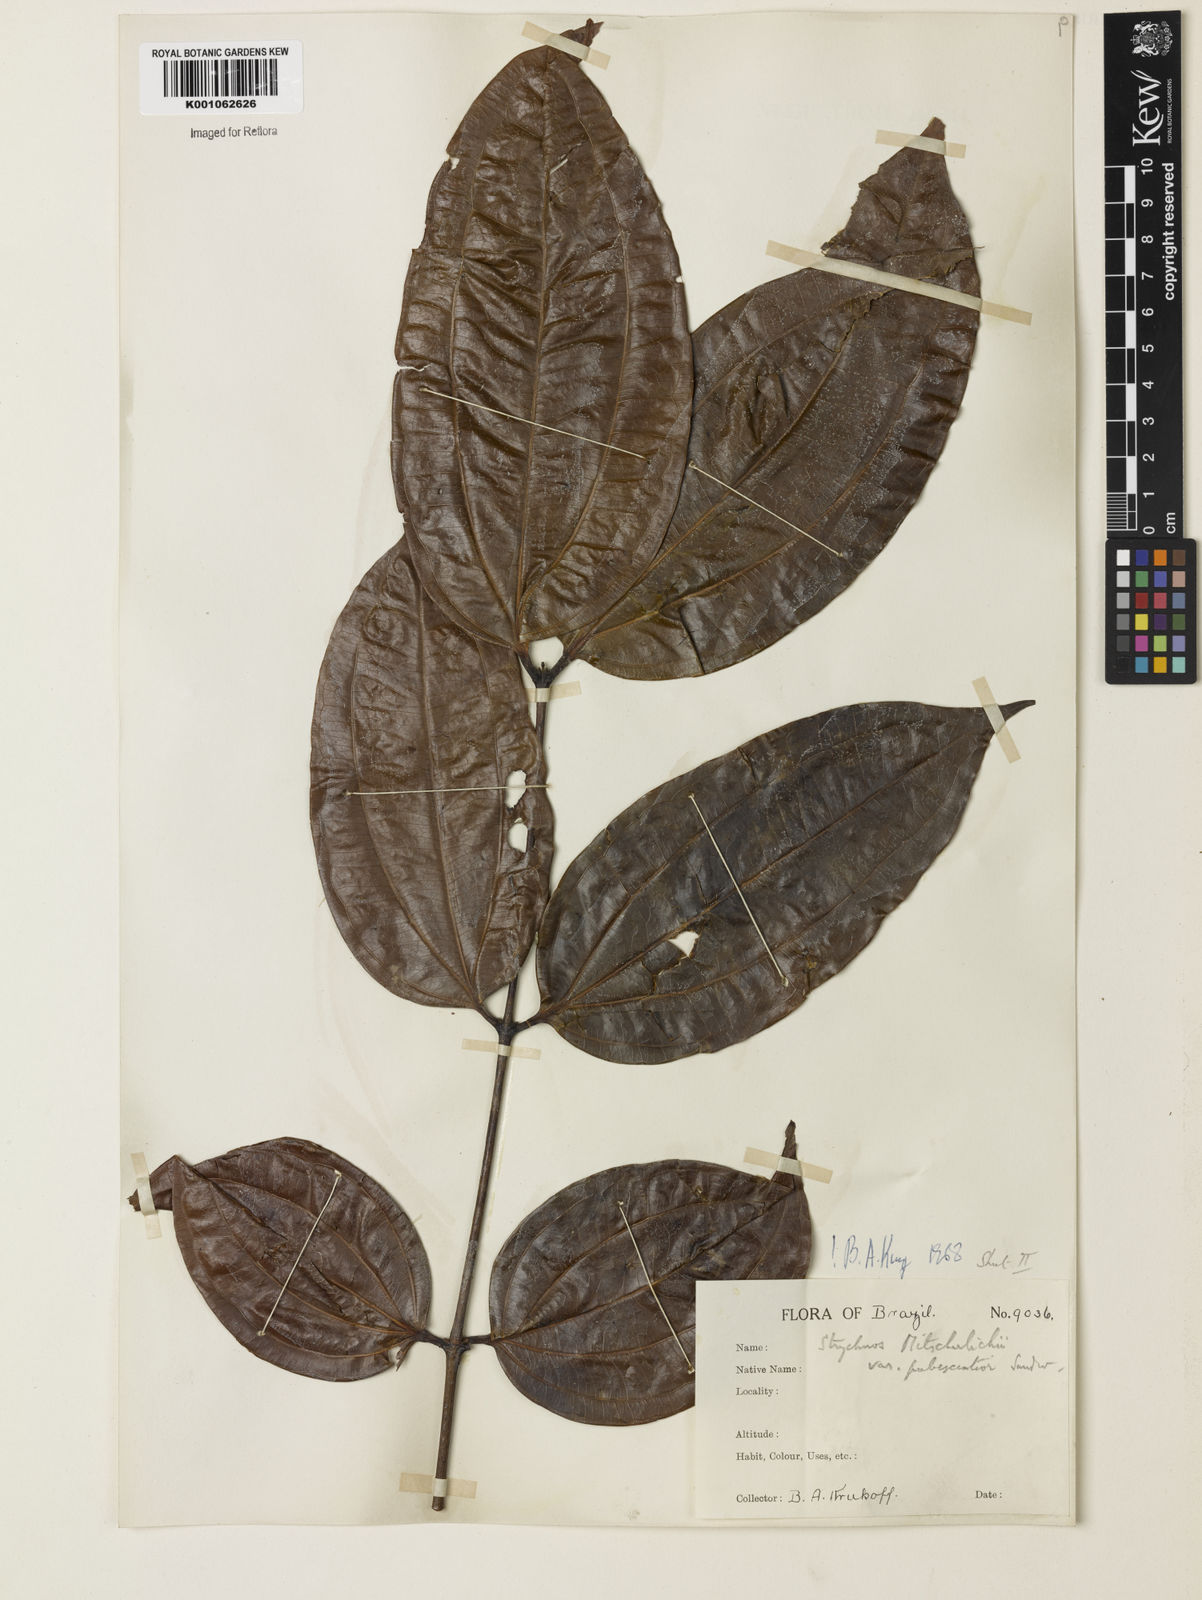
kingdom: Plantae
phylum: Tracheophyta
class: Magnoliopsida
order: Gentianales
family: Loganiaceae
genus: Strychnos
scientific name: Strychnos mitscherlichii
